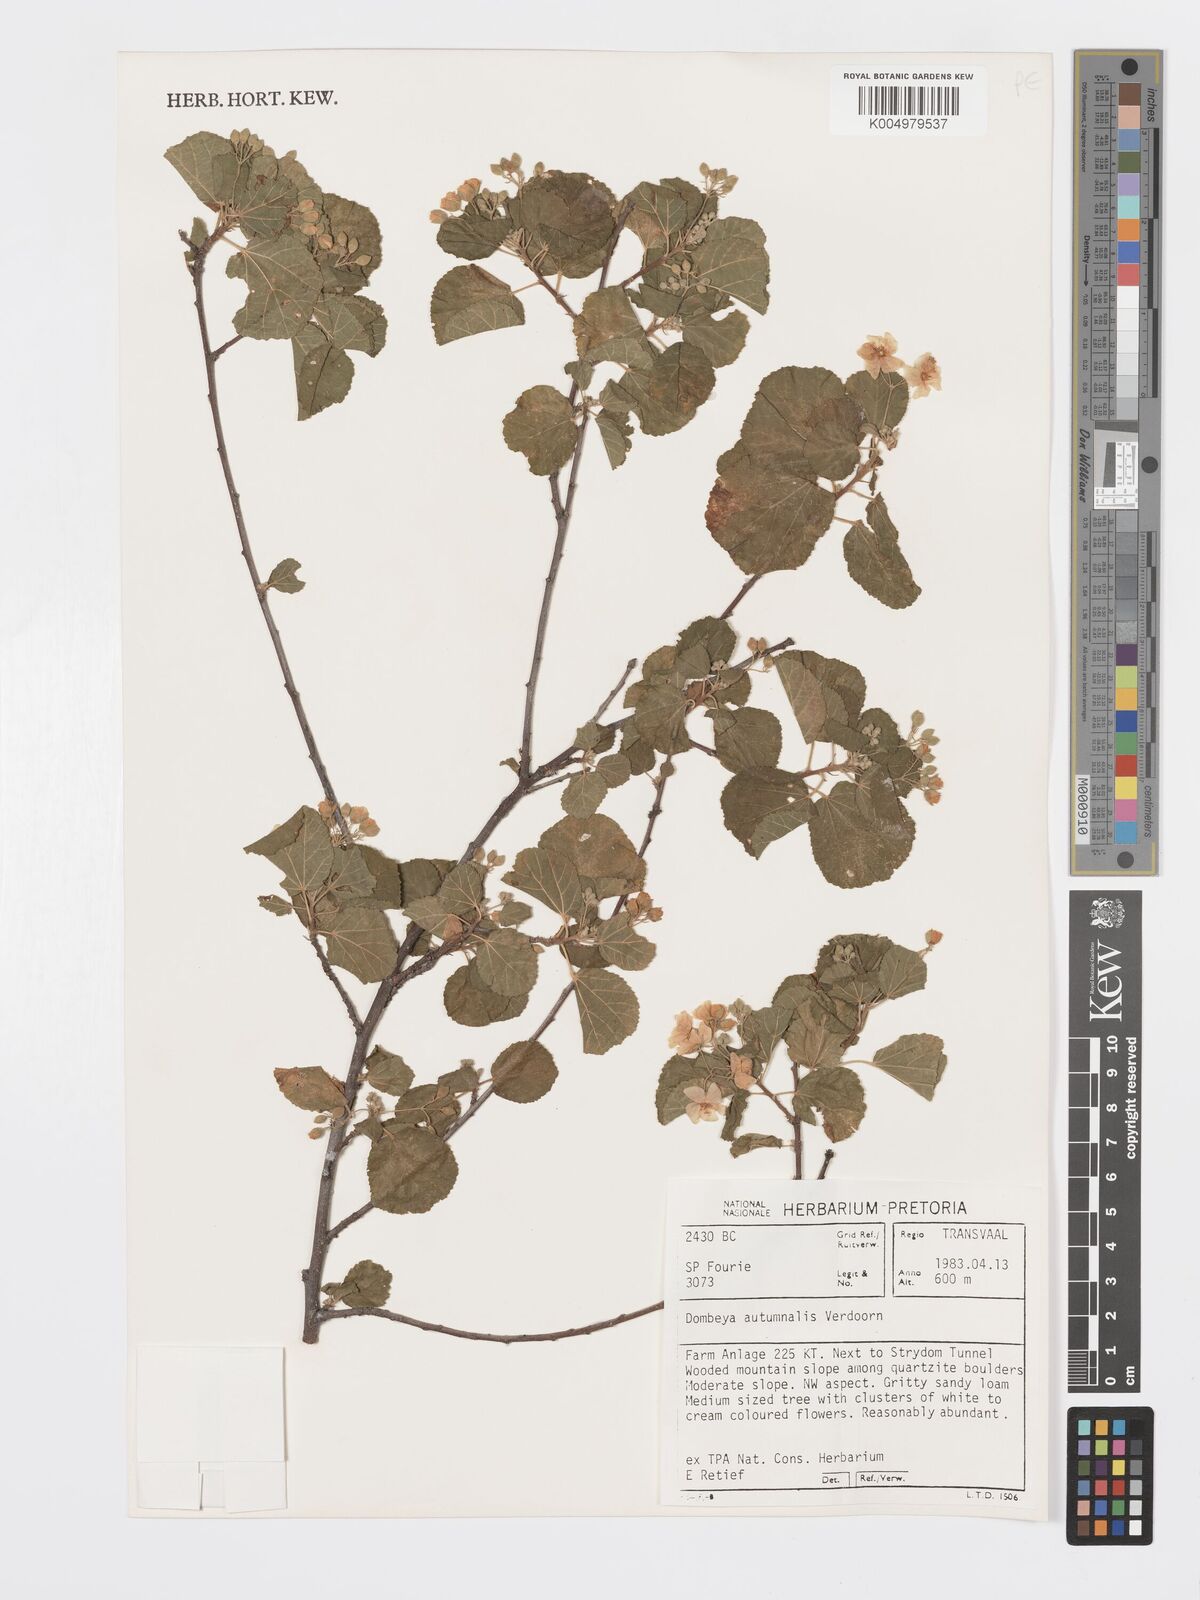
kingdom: Plantae
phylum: Tracheophyta
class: Magnoliopsida
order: Malvales
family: Malvaceae
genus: Dombeya
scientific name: Dombeya autumnalis
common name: Rock dombeya
